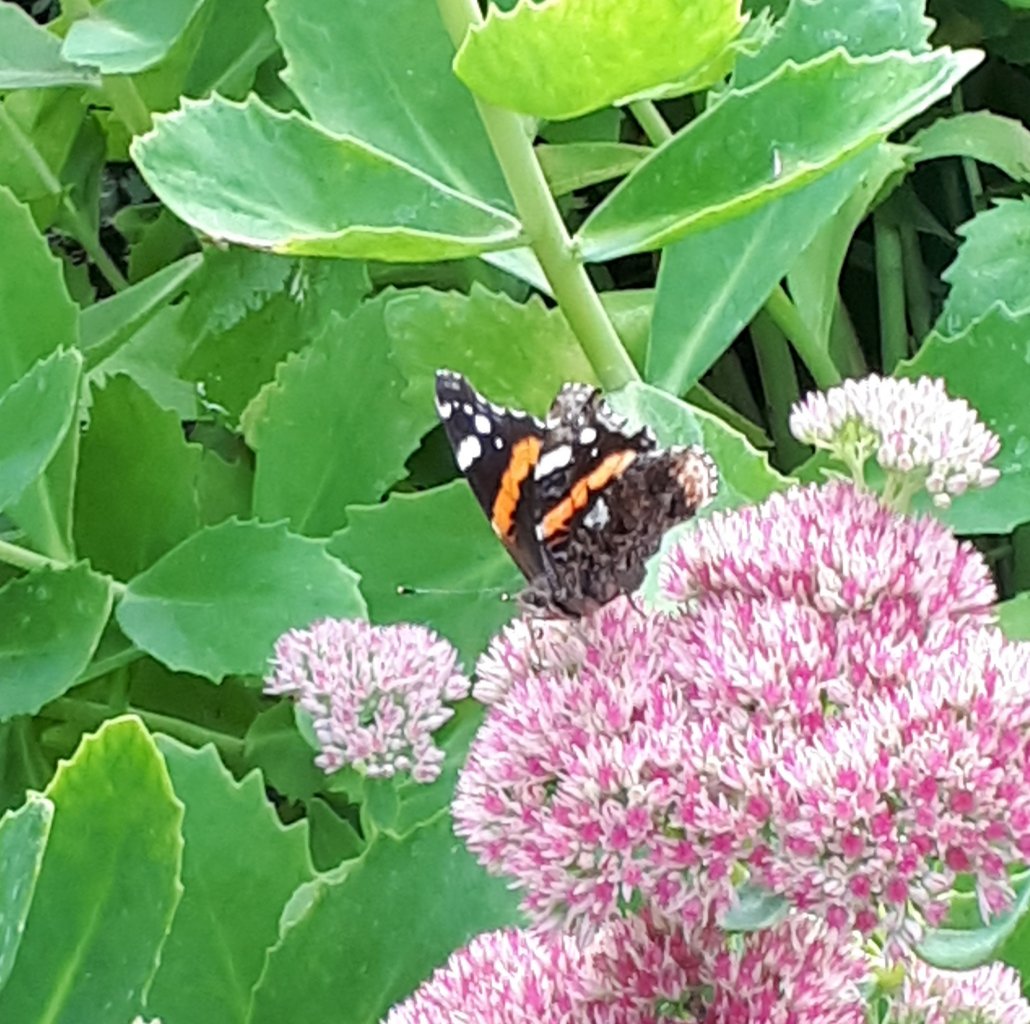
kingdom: Animalia
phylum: Arthropoda
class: Insecta
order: Lepidoptera
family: Nymphalidae
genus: Vanessa
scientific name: Vanessa atalanta
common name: Red Admiral
